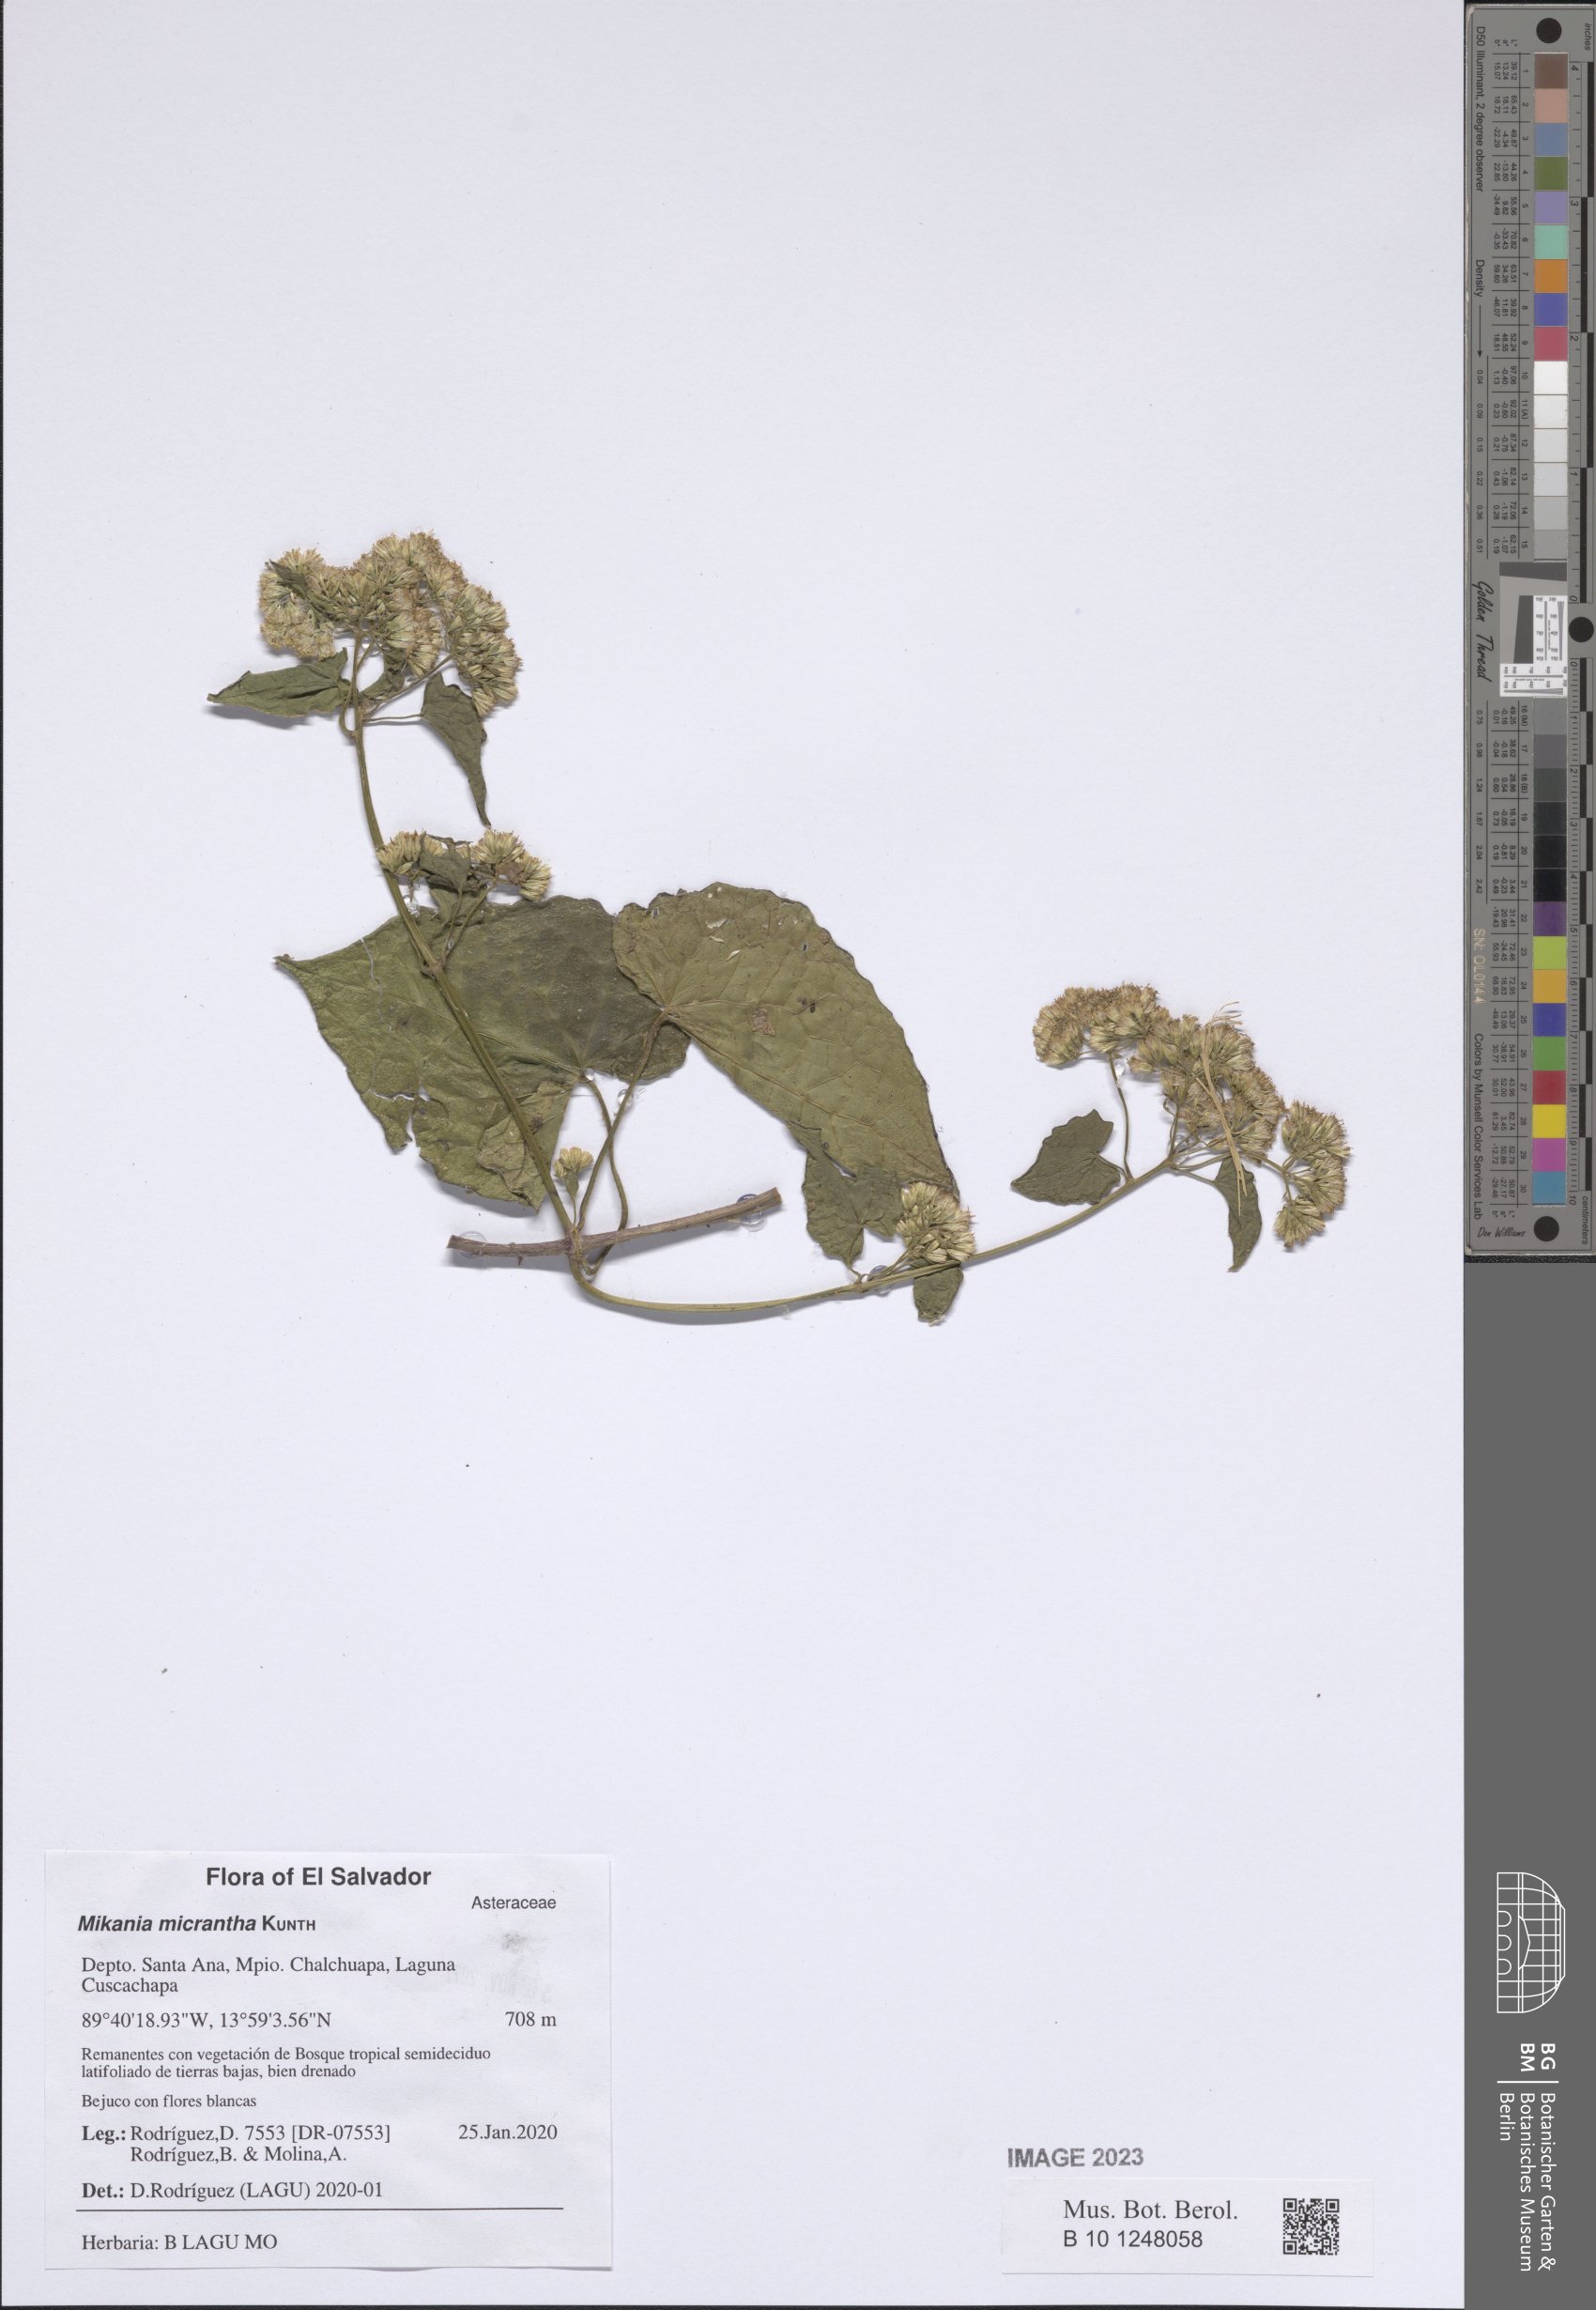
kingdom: Plantae
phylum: Tracheophyta
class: Magnoliopsida
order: Asterales
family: Asteraceae
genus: Mikania
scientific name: Mikania micrantha
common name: Mile-a-minute
